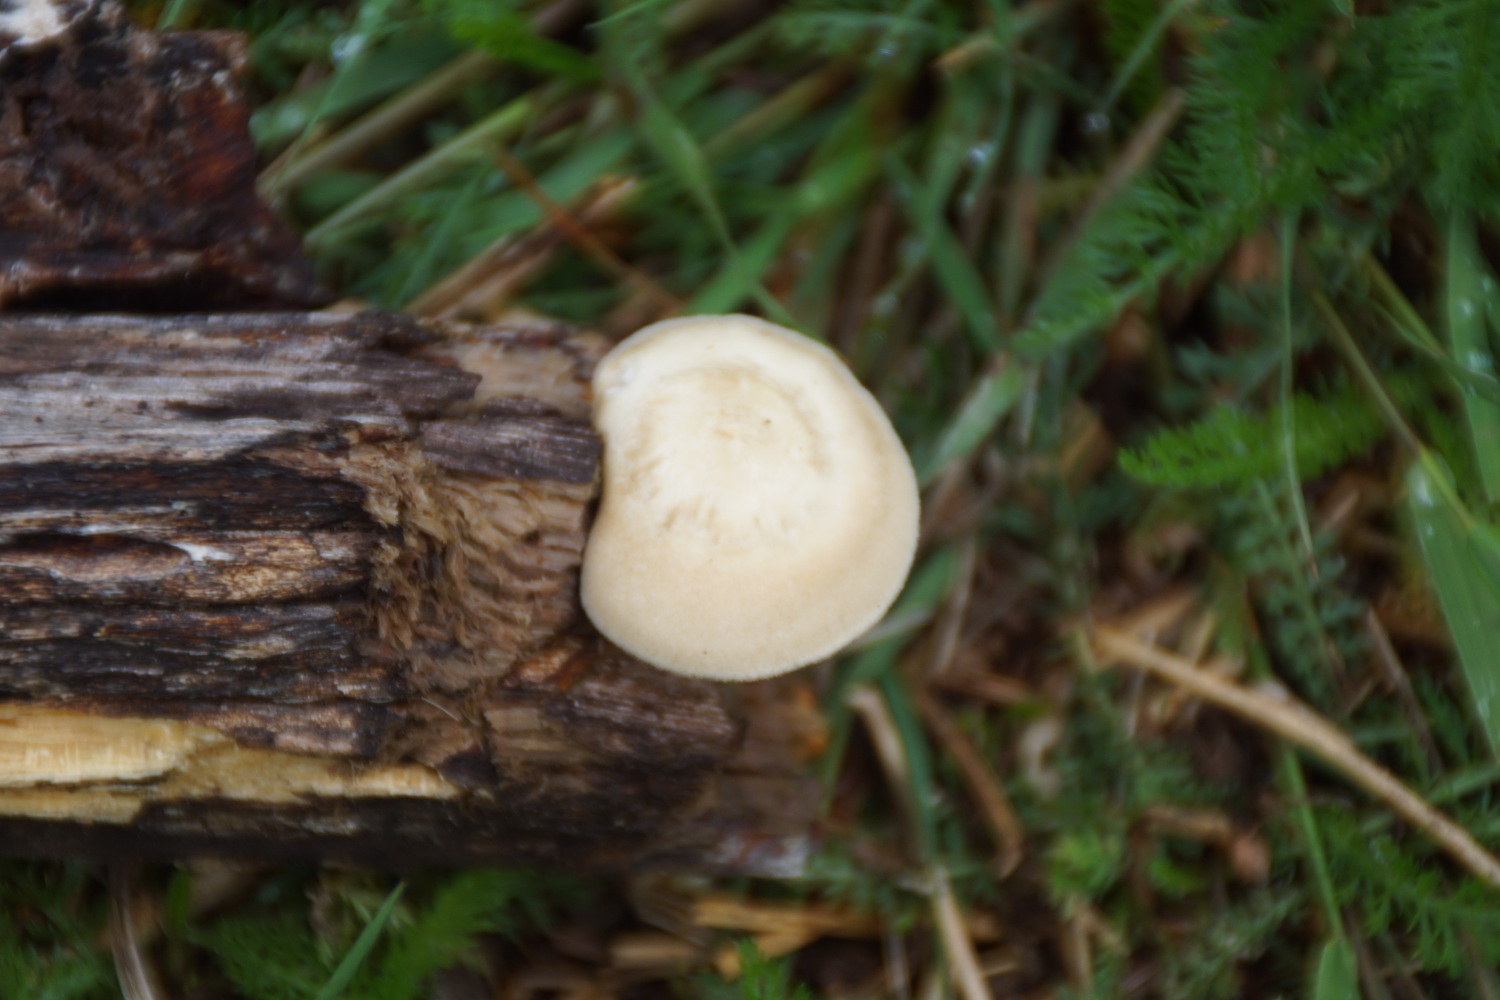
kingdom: Fungi
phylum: Basidiomycota
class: Agaricomycetes
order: Polyporales
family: Polyporaceae
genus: Lentinus
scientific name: Lentinus substrictus
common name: forårs-stilkporesvamp
